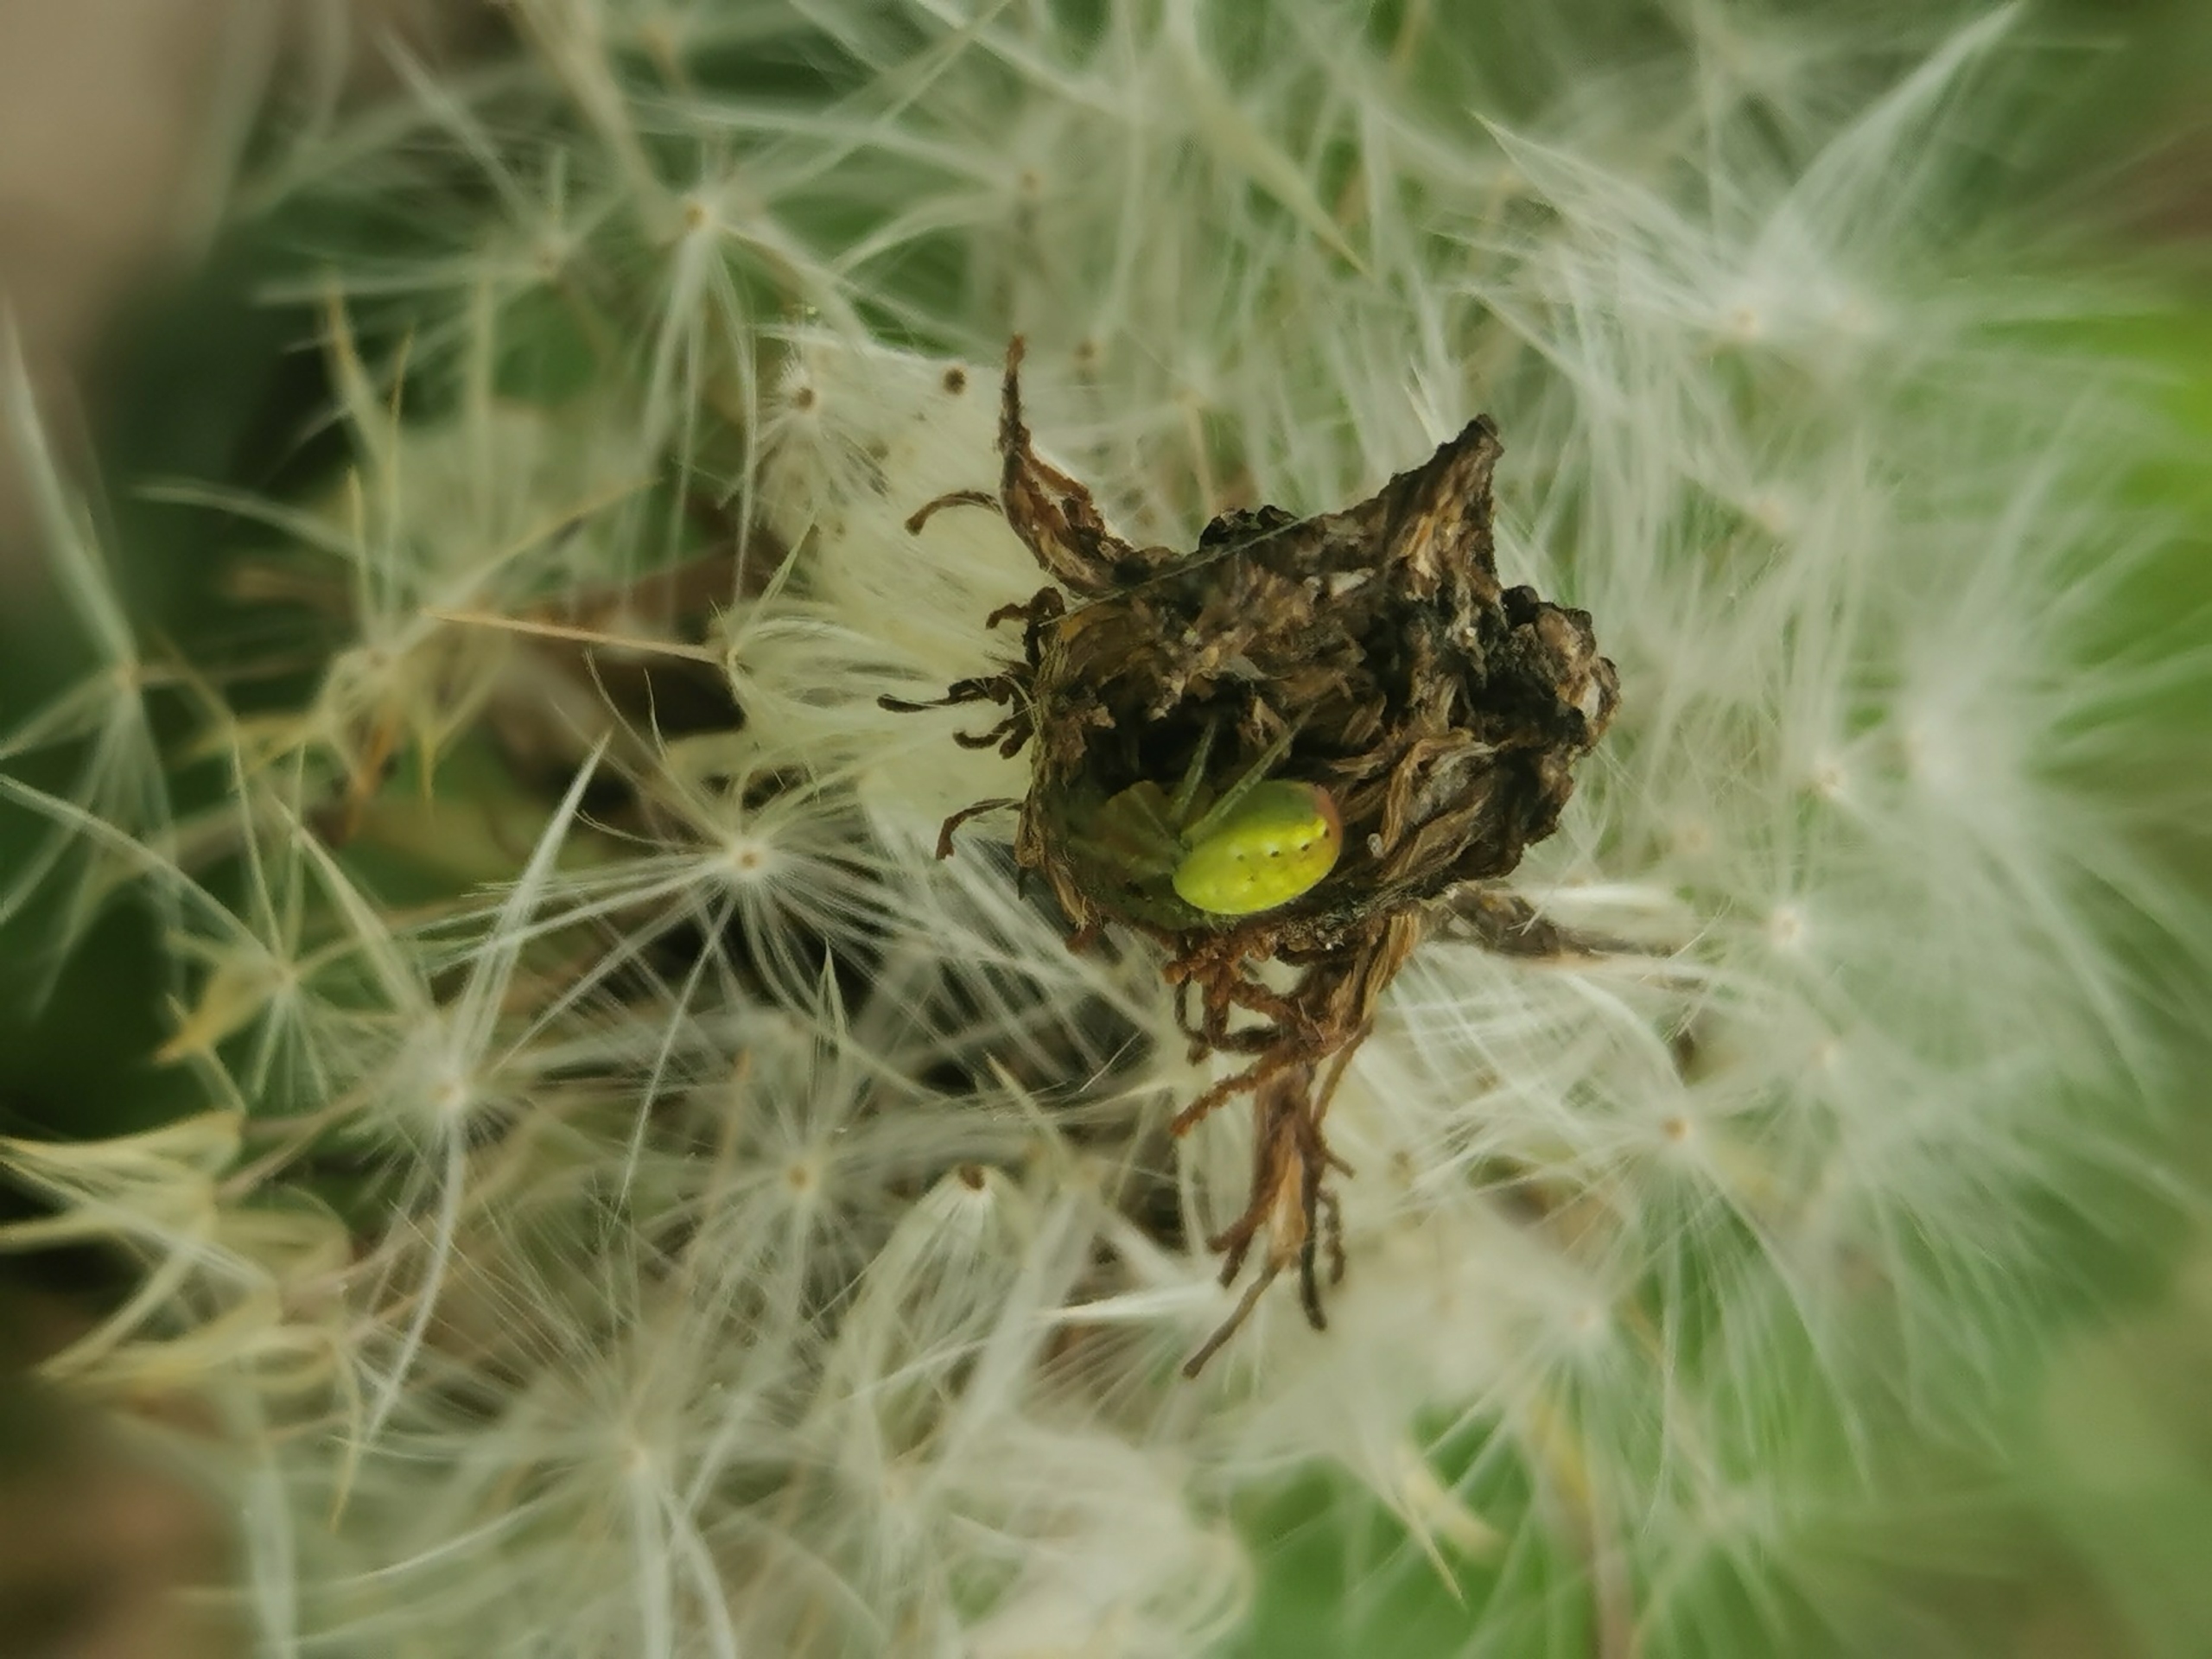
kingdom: Animalia
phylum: Arthropoda
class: Arachnida
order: Araneae
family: Araneidae
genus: Araniella
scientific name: Araniella
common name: Agurkeedderkopslægten
